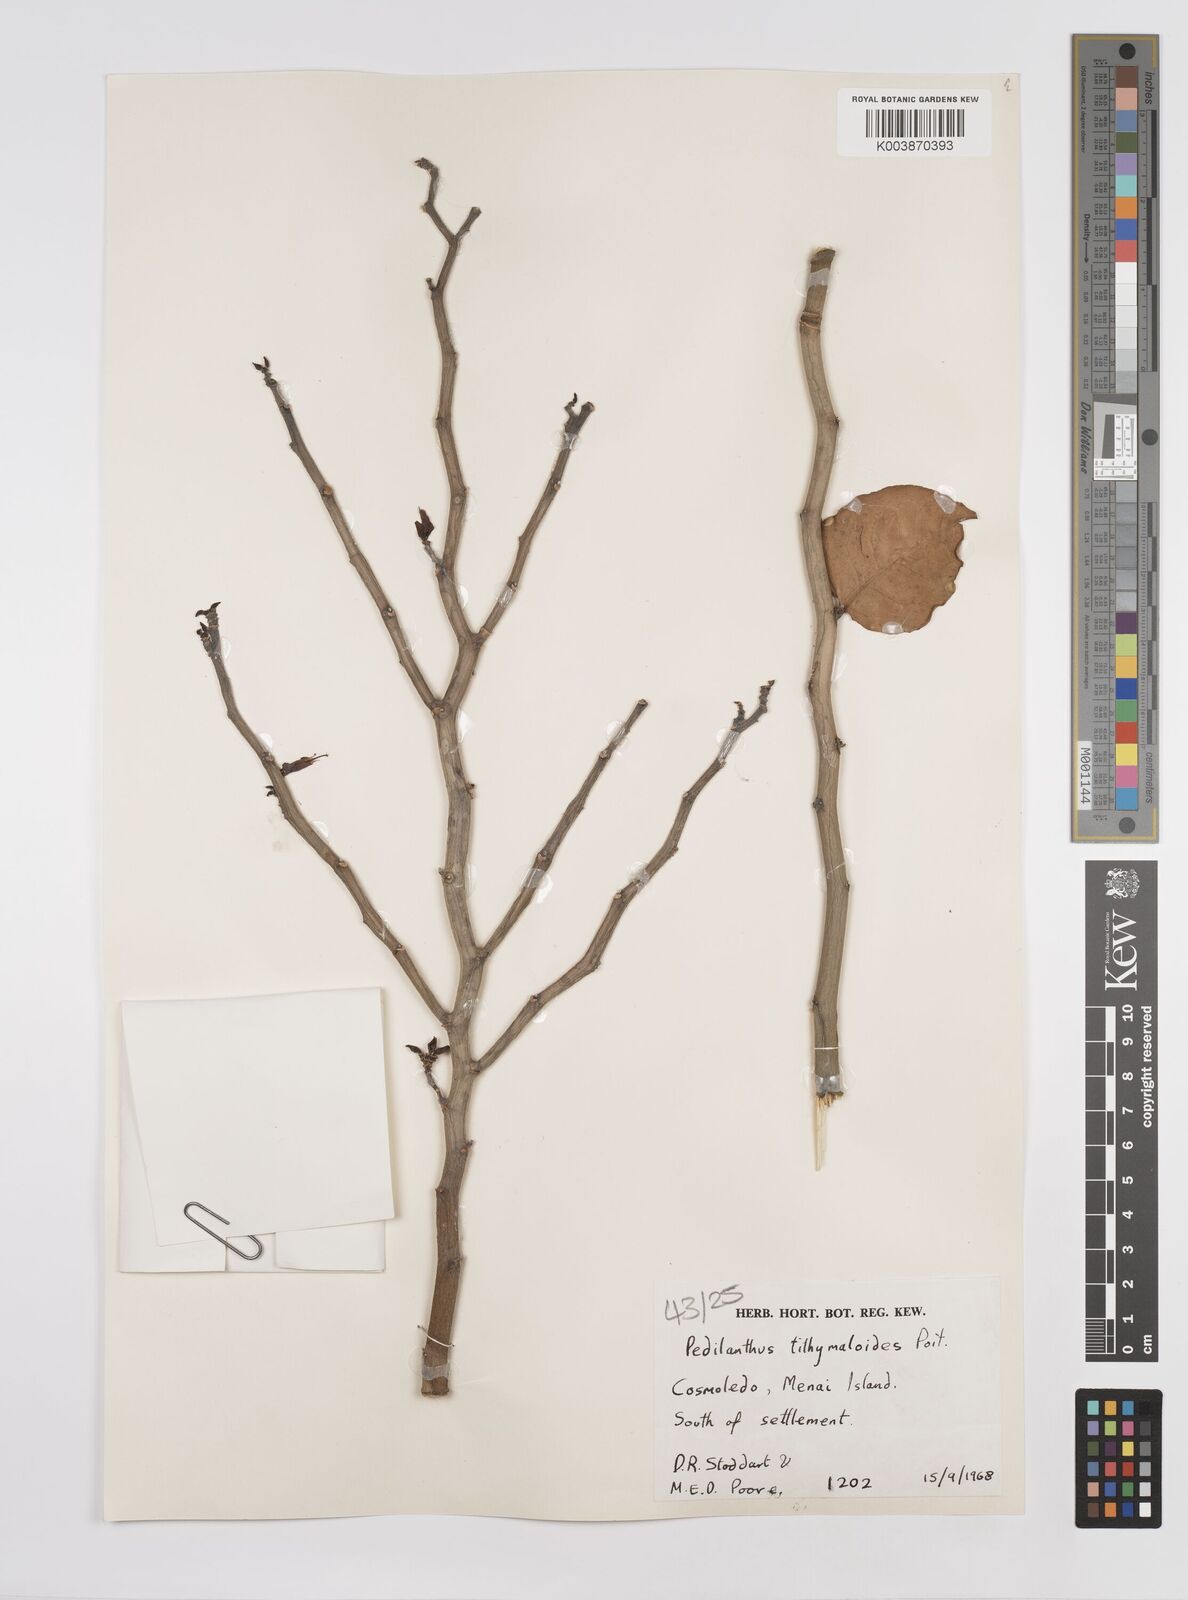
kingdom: Plantae
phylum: Tracheophyta
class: Magnoliopsida
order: Malpighiales
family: Euphorbiaceae
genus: Euphorbia
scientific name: Euphorbia tithymaloides
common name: Slipperplant
